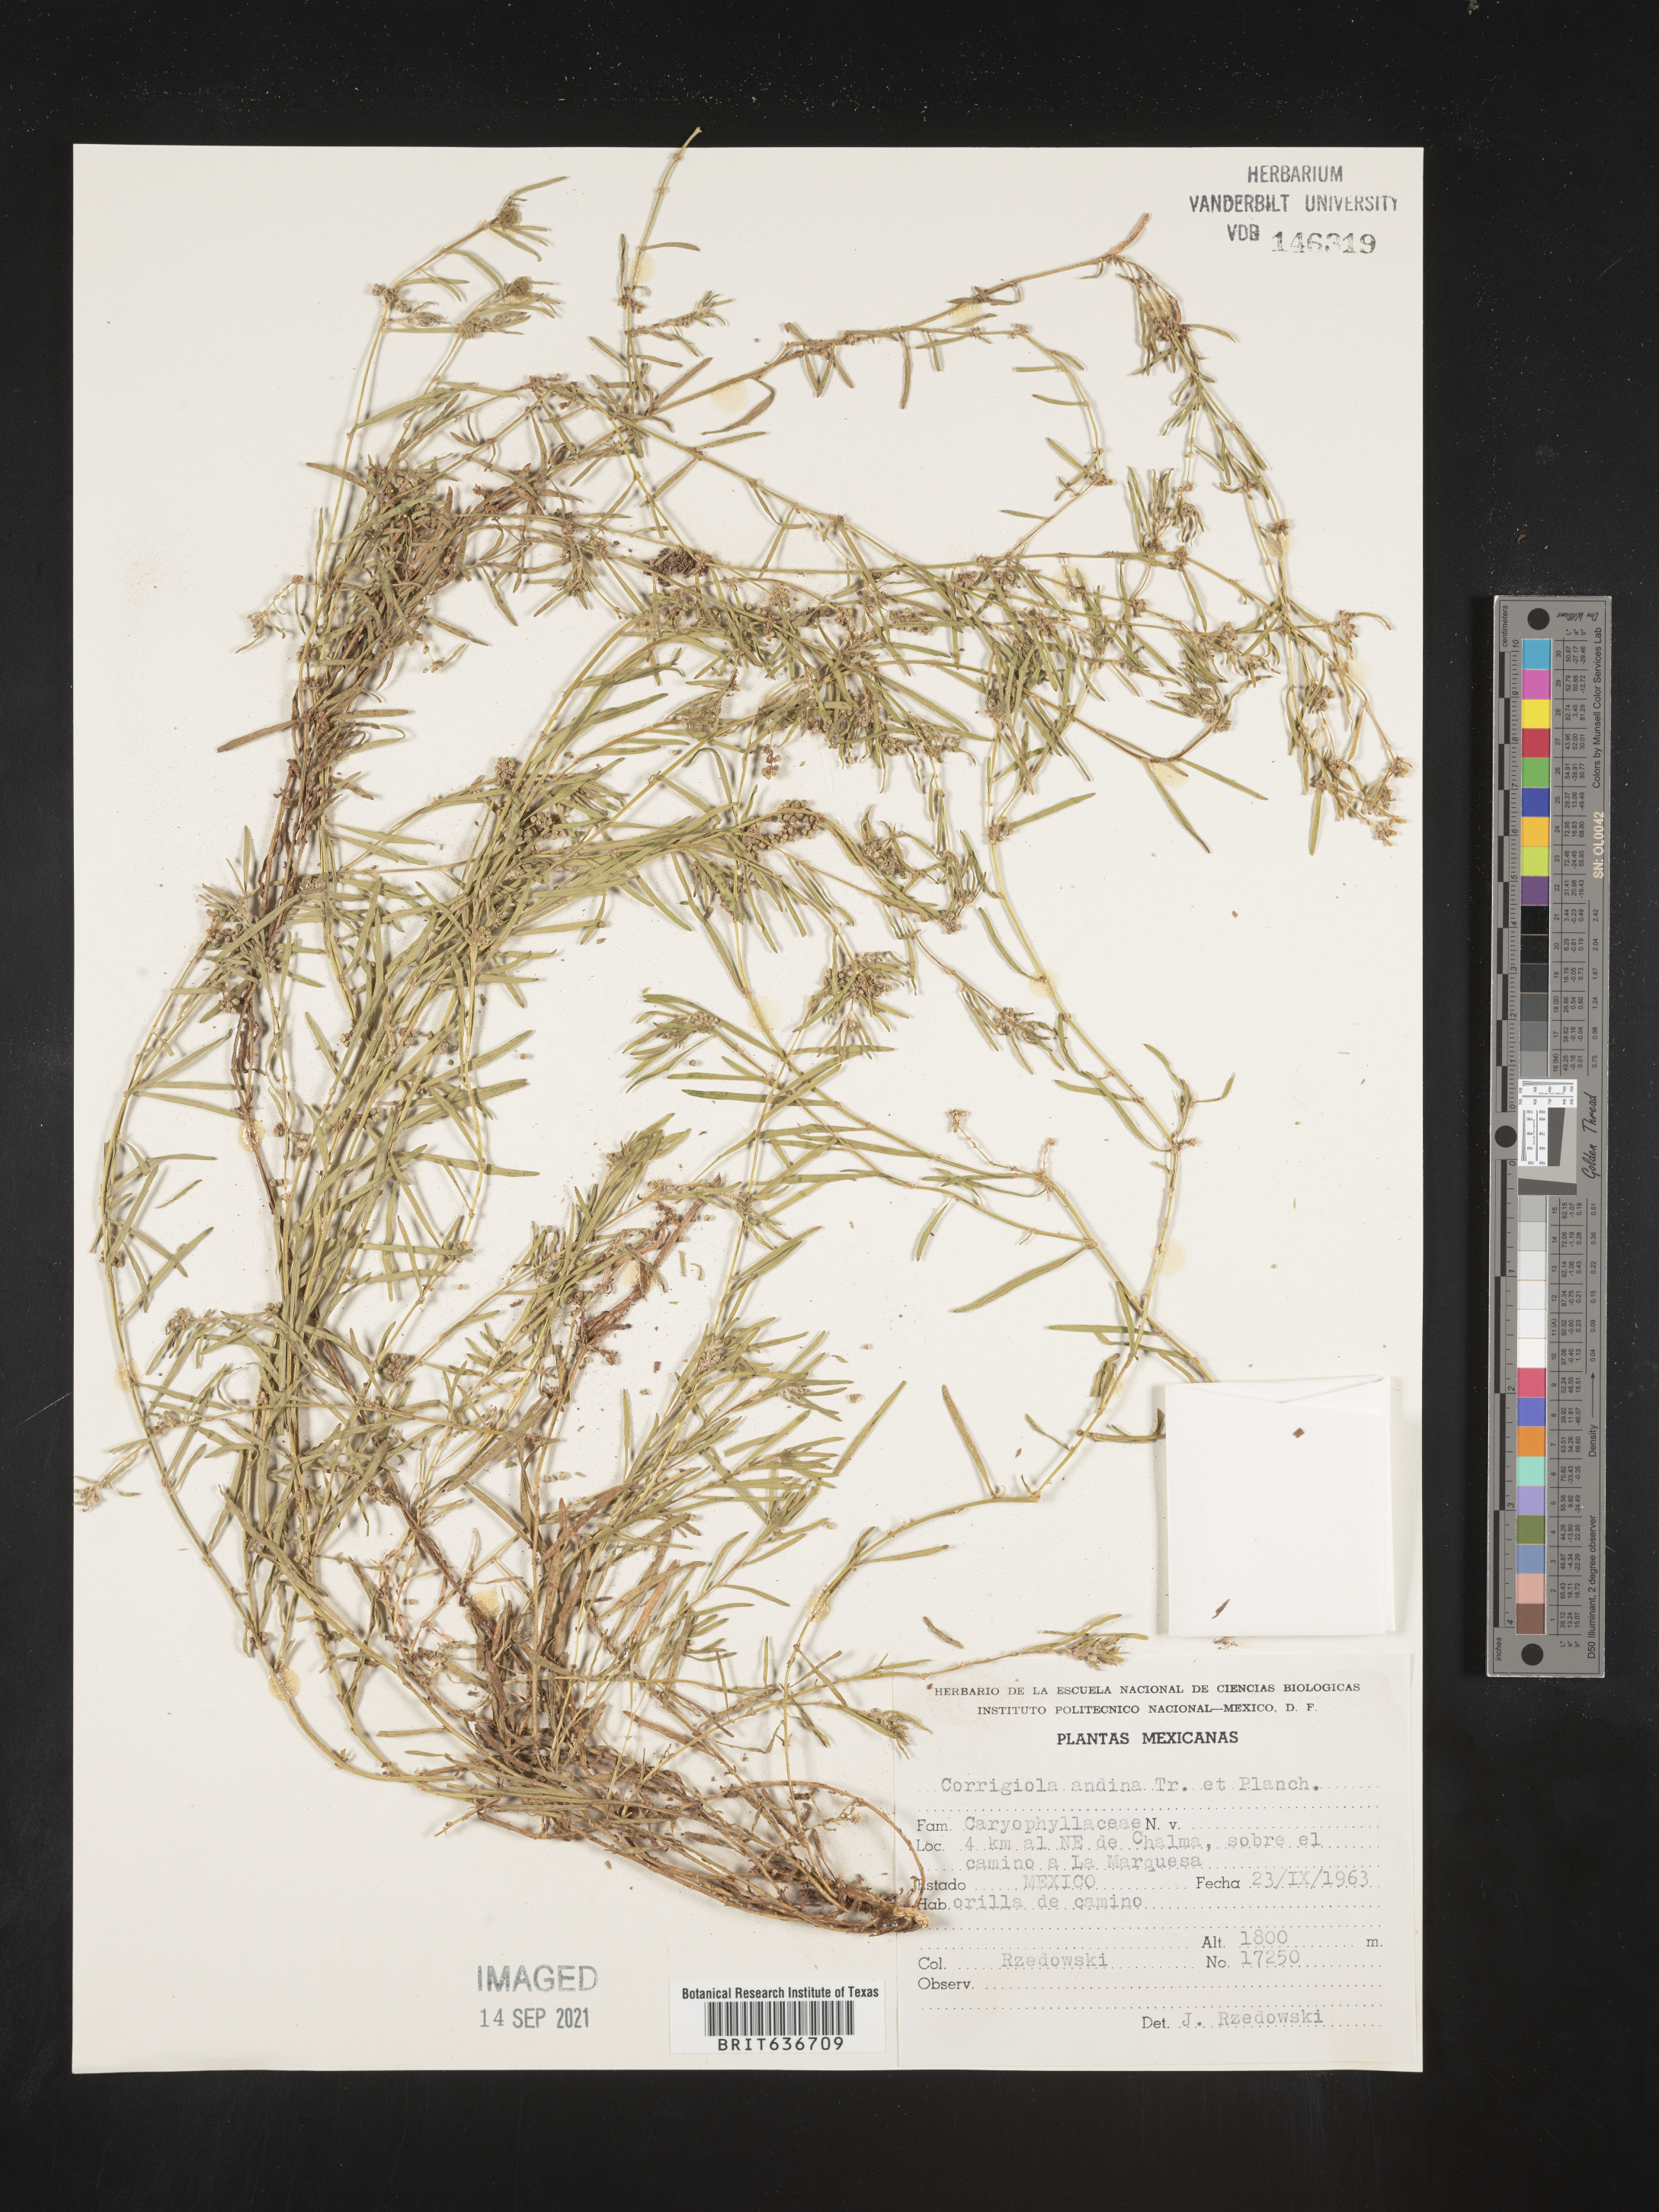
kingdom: Plantae
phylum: Tracheophyta
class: Magnoliopsida
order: Caryophyllales
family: Caryophyllaceae
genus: Corrigiola
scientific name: Corrigiola andina
